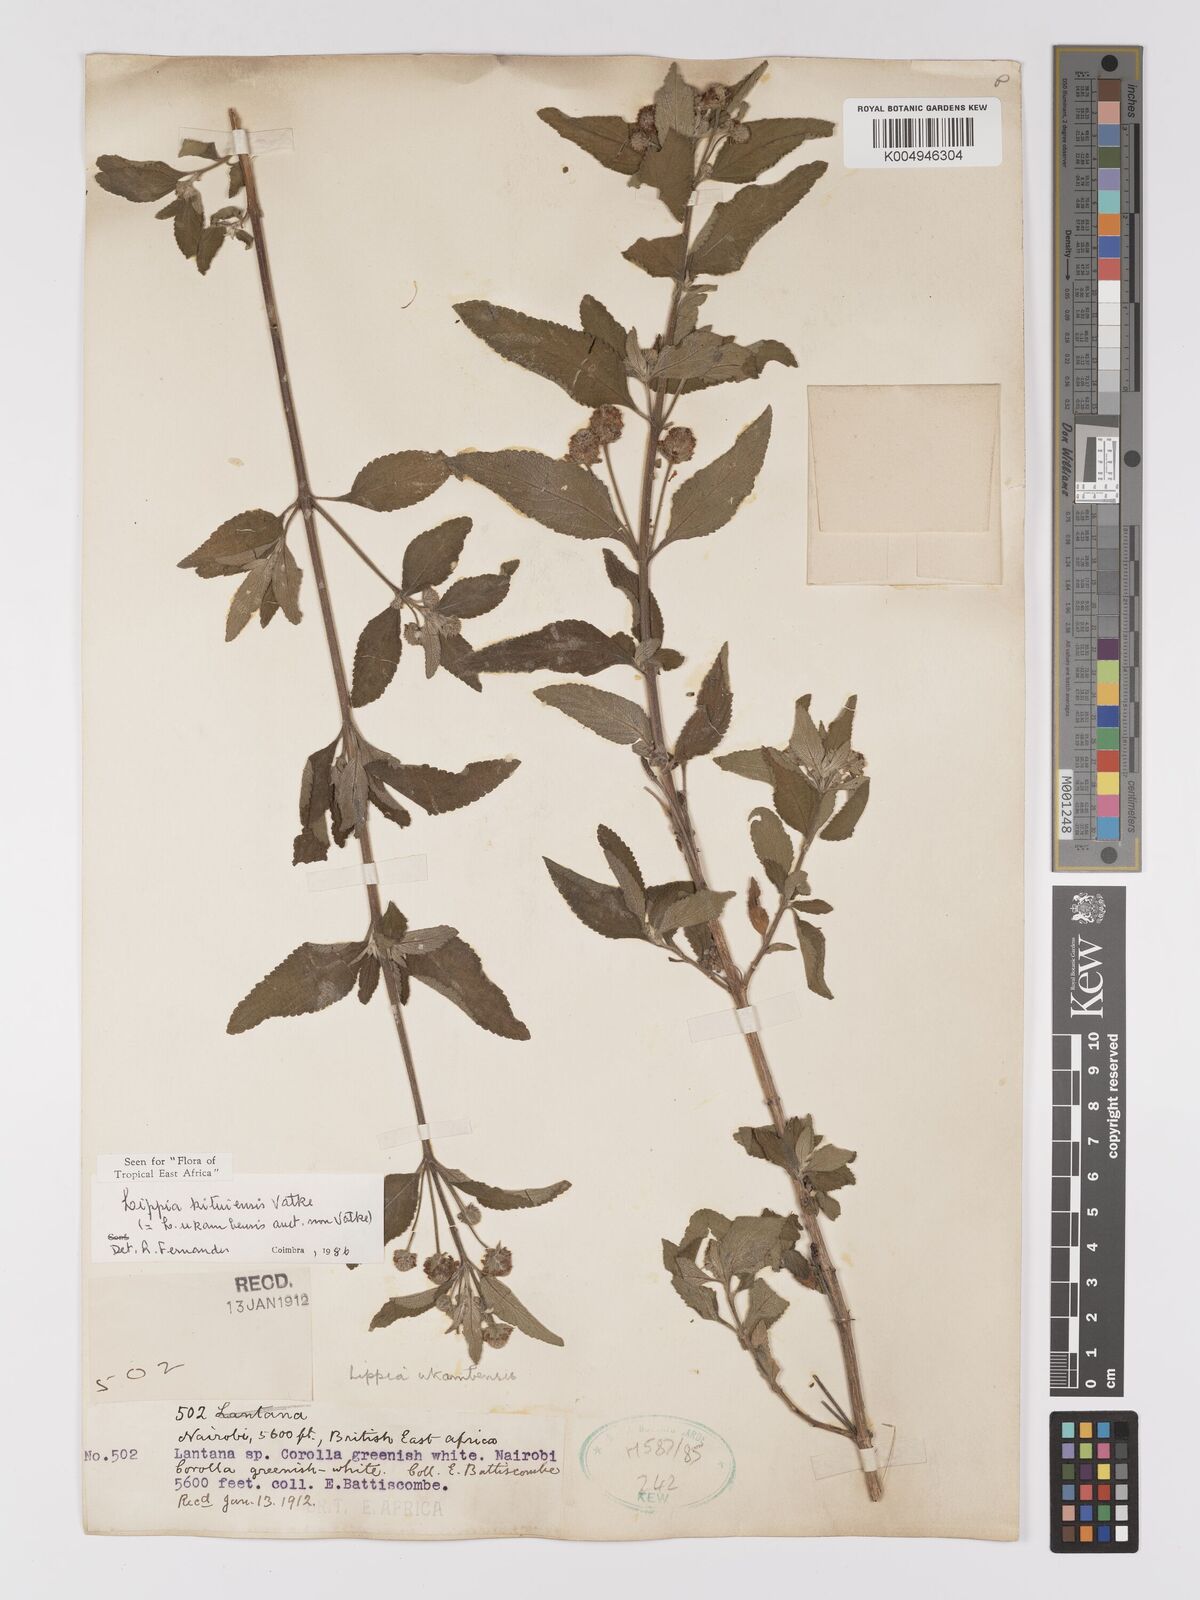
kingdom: Plantae
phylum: Tracheophyta
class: Magnoliopsida
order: Lamiales
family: Verbenaceae
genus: Lippia
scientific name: Lippia kituiensis
